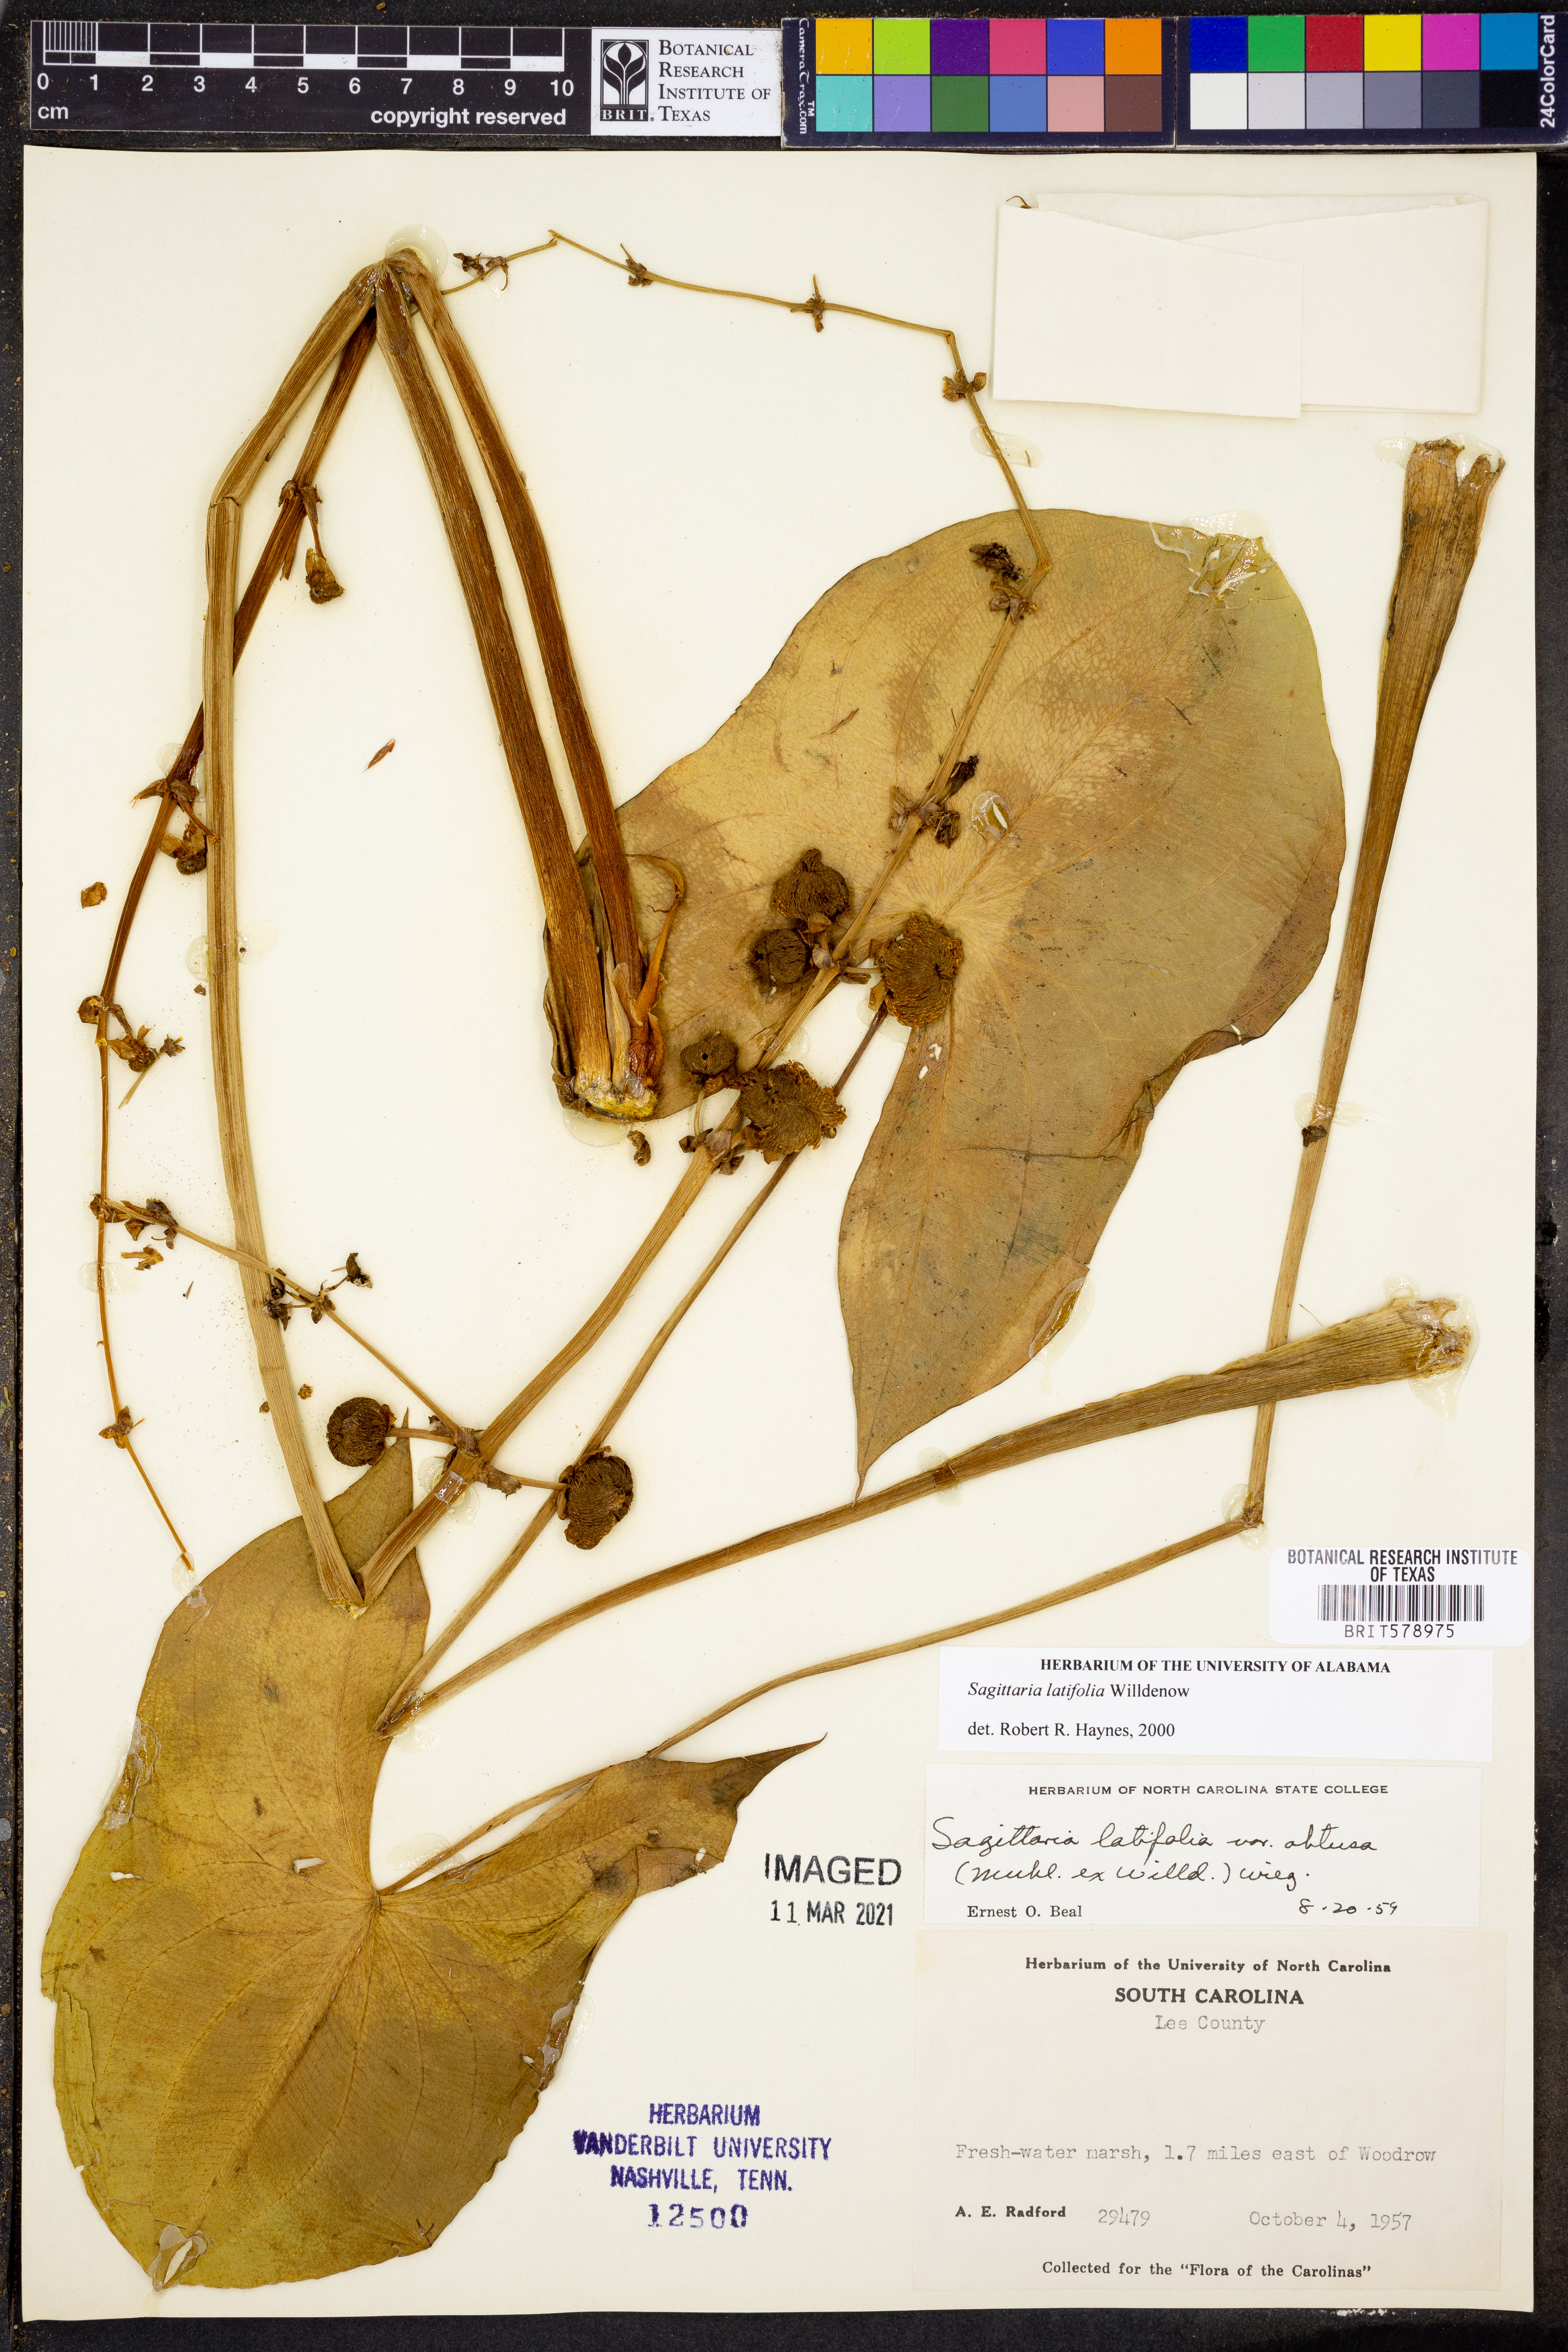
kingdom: Plantae
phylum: Tracheophyta
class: Liliopsida
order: Alismatales
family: Alismataceae
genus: Sagittaria
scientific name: Sagittaria latifolia
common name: Duck-potato
